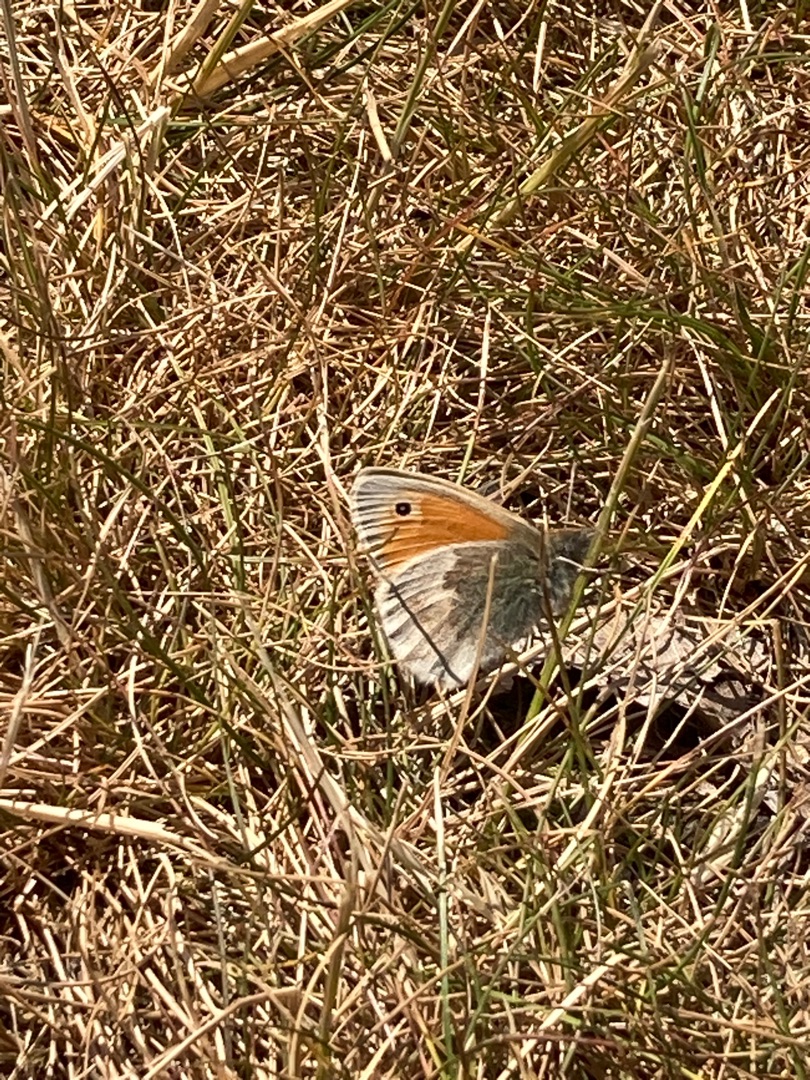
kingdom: Animalia
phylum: Arthropoda
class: Insecta
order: Lepidoptera
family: Nymphalidae
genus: Coenonympha
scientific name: Coenonympha pamphilus
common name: Okkergul randøje
